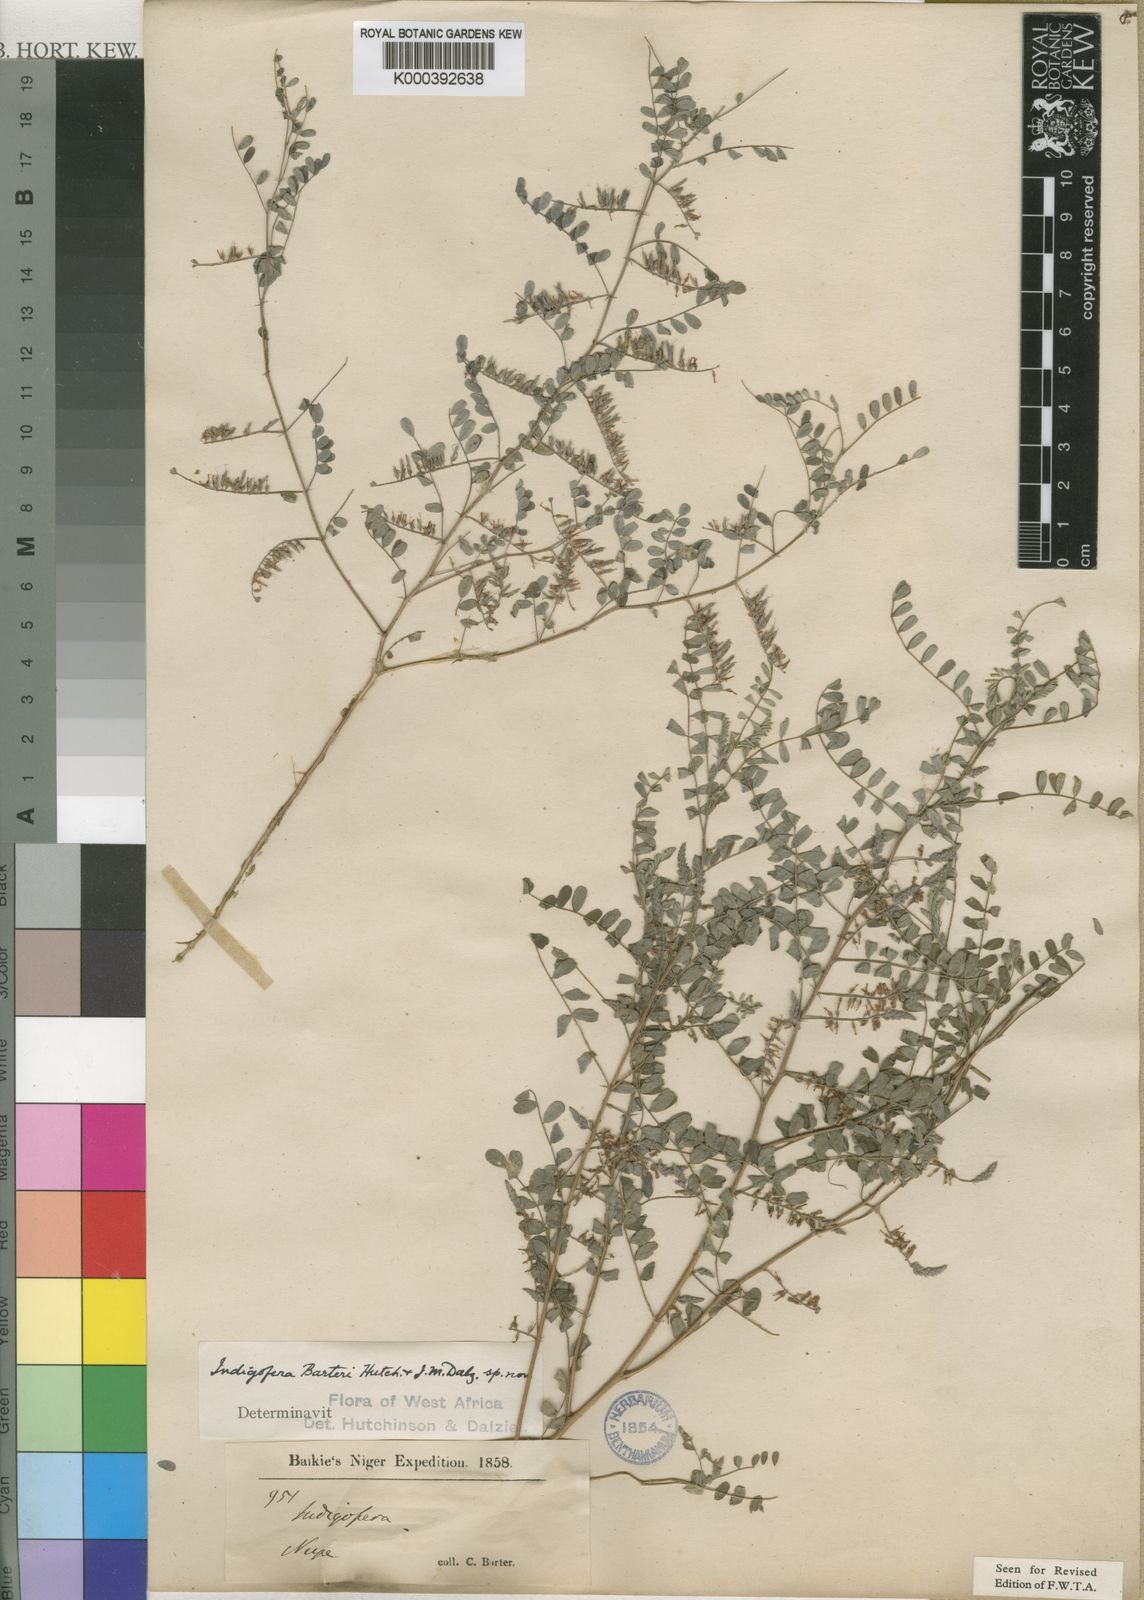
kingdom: Plantae
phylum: Tracheophyta
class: Magnoliopsida
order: Fabales
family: Fabaceae
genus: Indigofera
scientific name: Indigofera barteri
